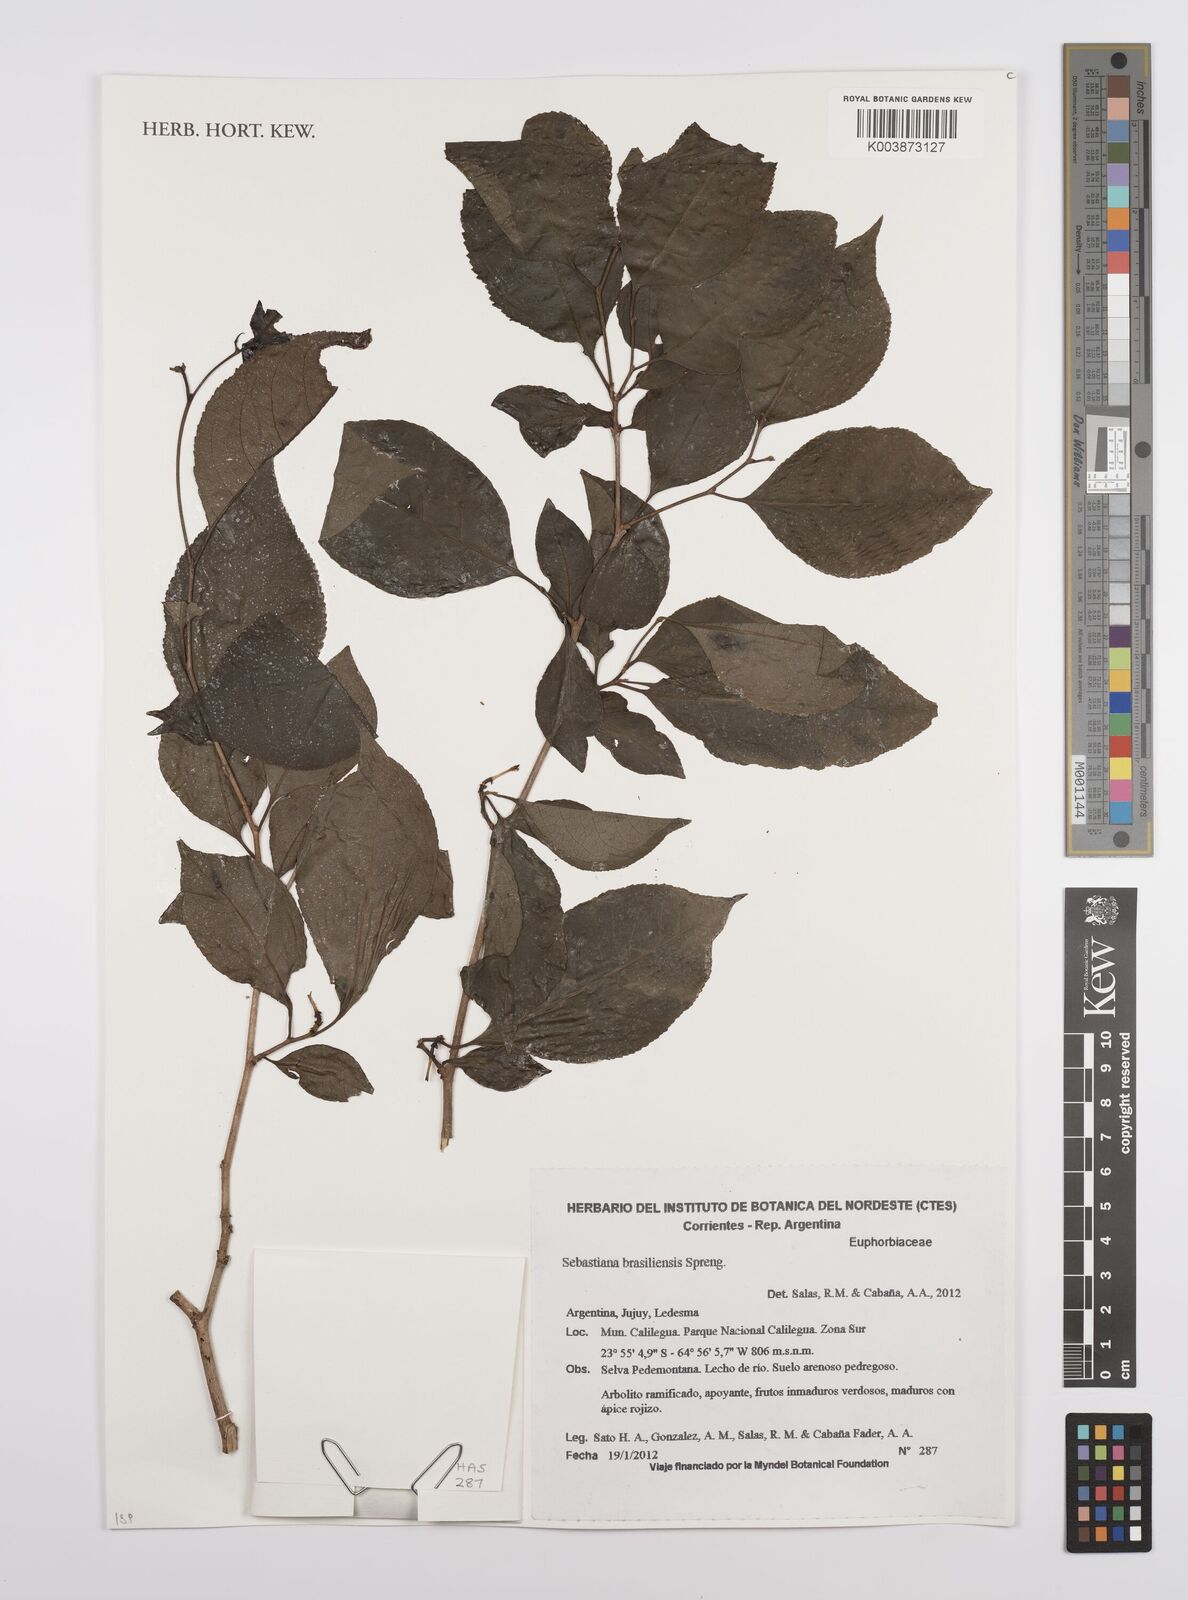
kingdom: Plantae
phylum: Tracheophyta
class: Magnoliopsida
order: Malpighiales
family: Euphorbiaceae
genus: Sebastiania
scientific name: Sebastiania brasiliensis
